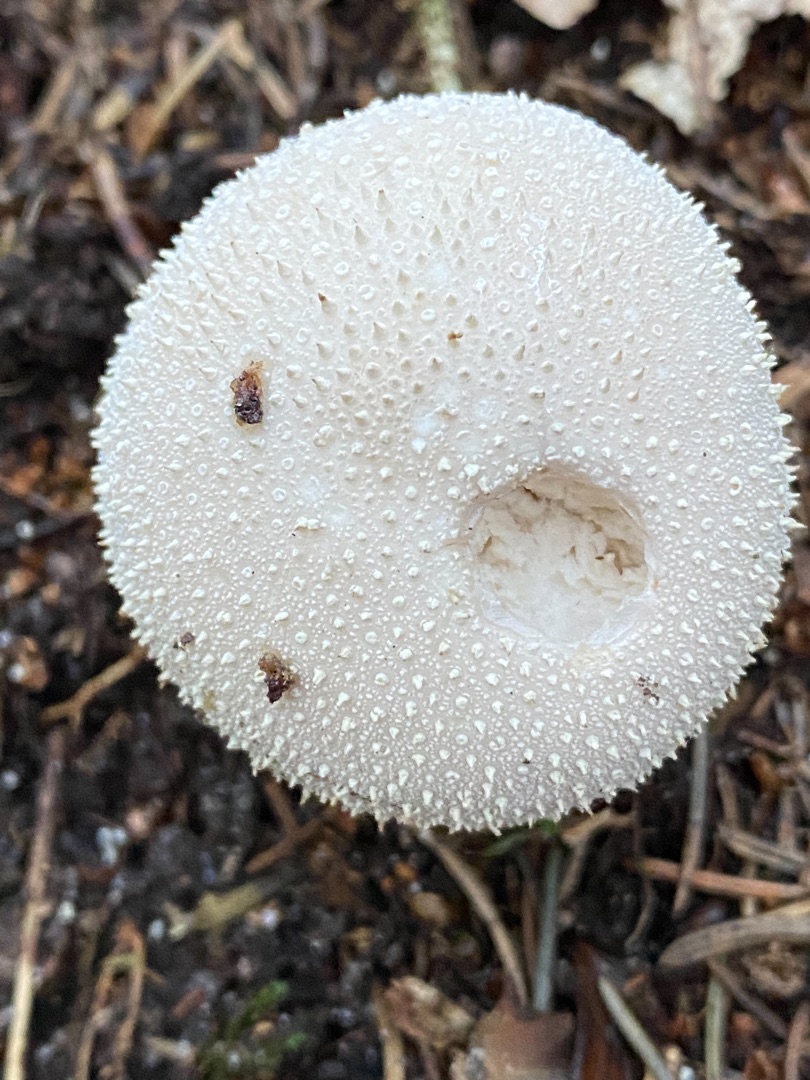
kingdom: Fungi
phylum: Basidiomycota
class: Agaricomycetes
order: Agaricales
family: Lycoperdaceae
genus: Lycoperdon
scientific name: Lycoperdon perlatum
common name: Krystal-støvbold
